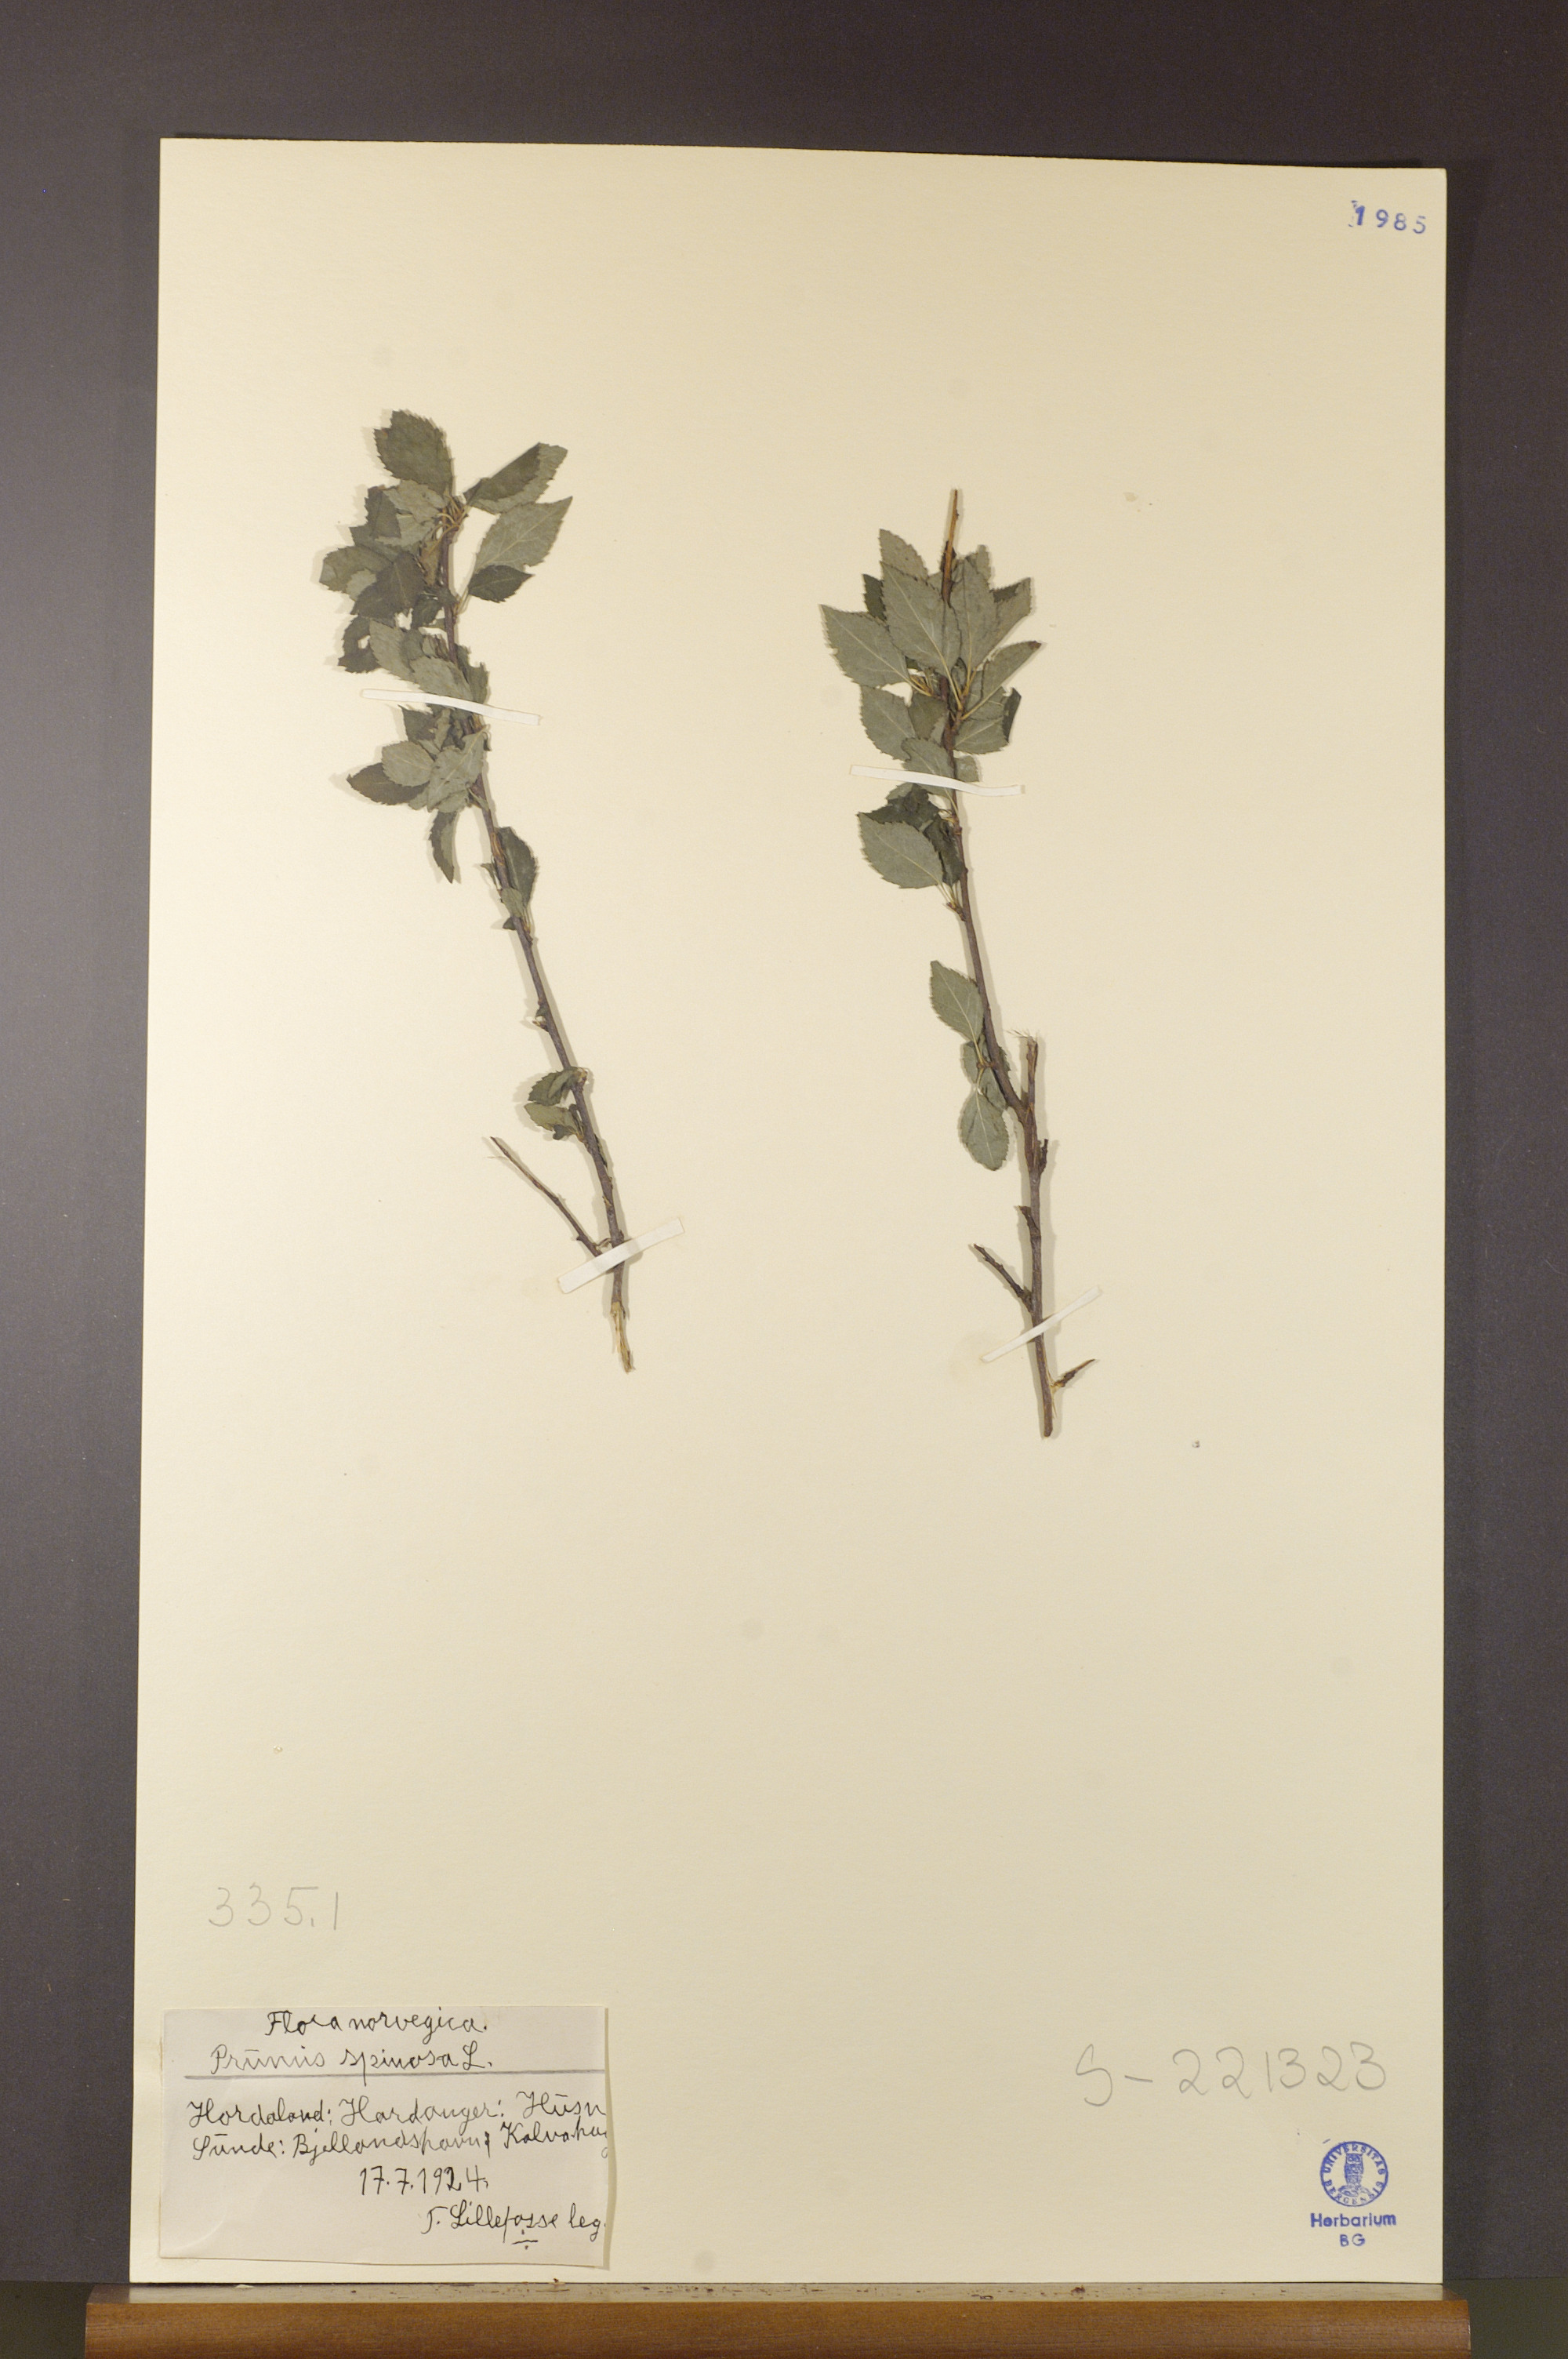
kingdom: Plantae
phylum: Tracheophyta
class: Magnoliopsida
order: Rosales
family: Rosaceae
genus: Prunus
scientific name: Prunus spinosa
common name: Blackthorn
